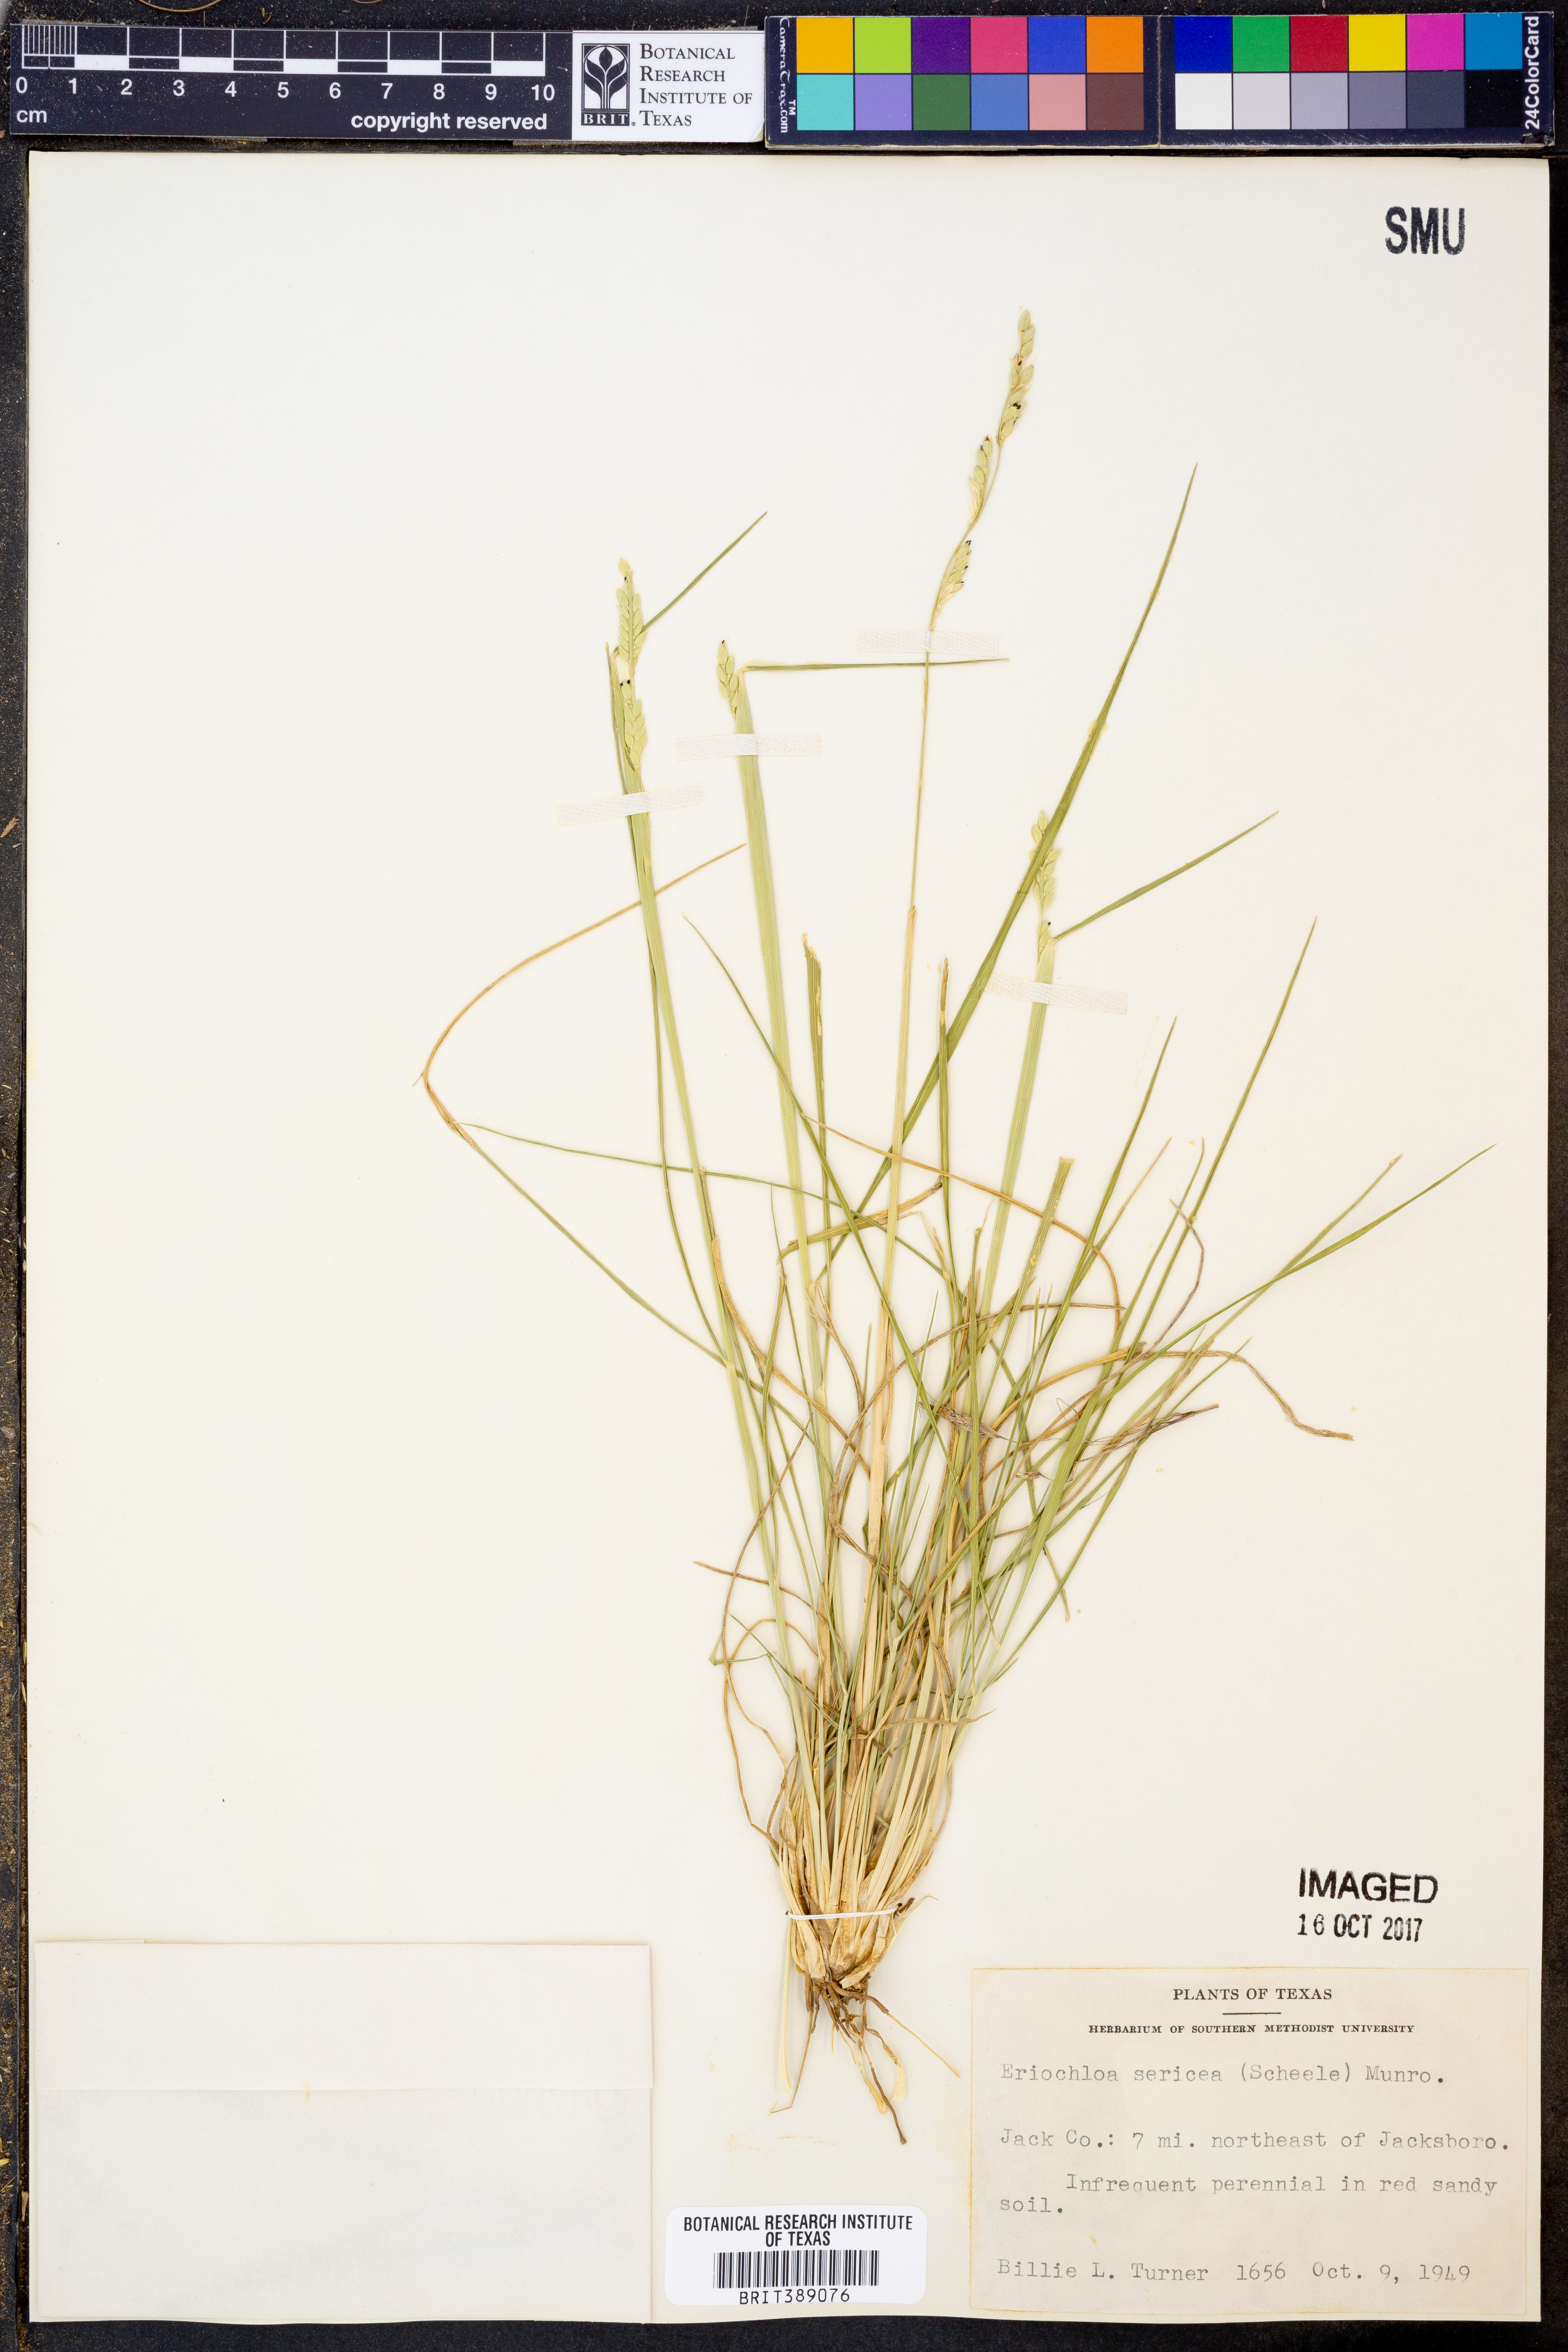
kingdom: Plantae
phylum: Tracheophyta
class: Liliopsida
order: Poales
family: Poaceae
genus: Eriochloa
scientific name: Eriochloa sericea
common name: Texas cup grass
